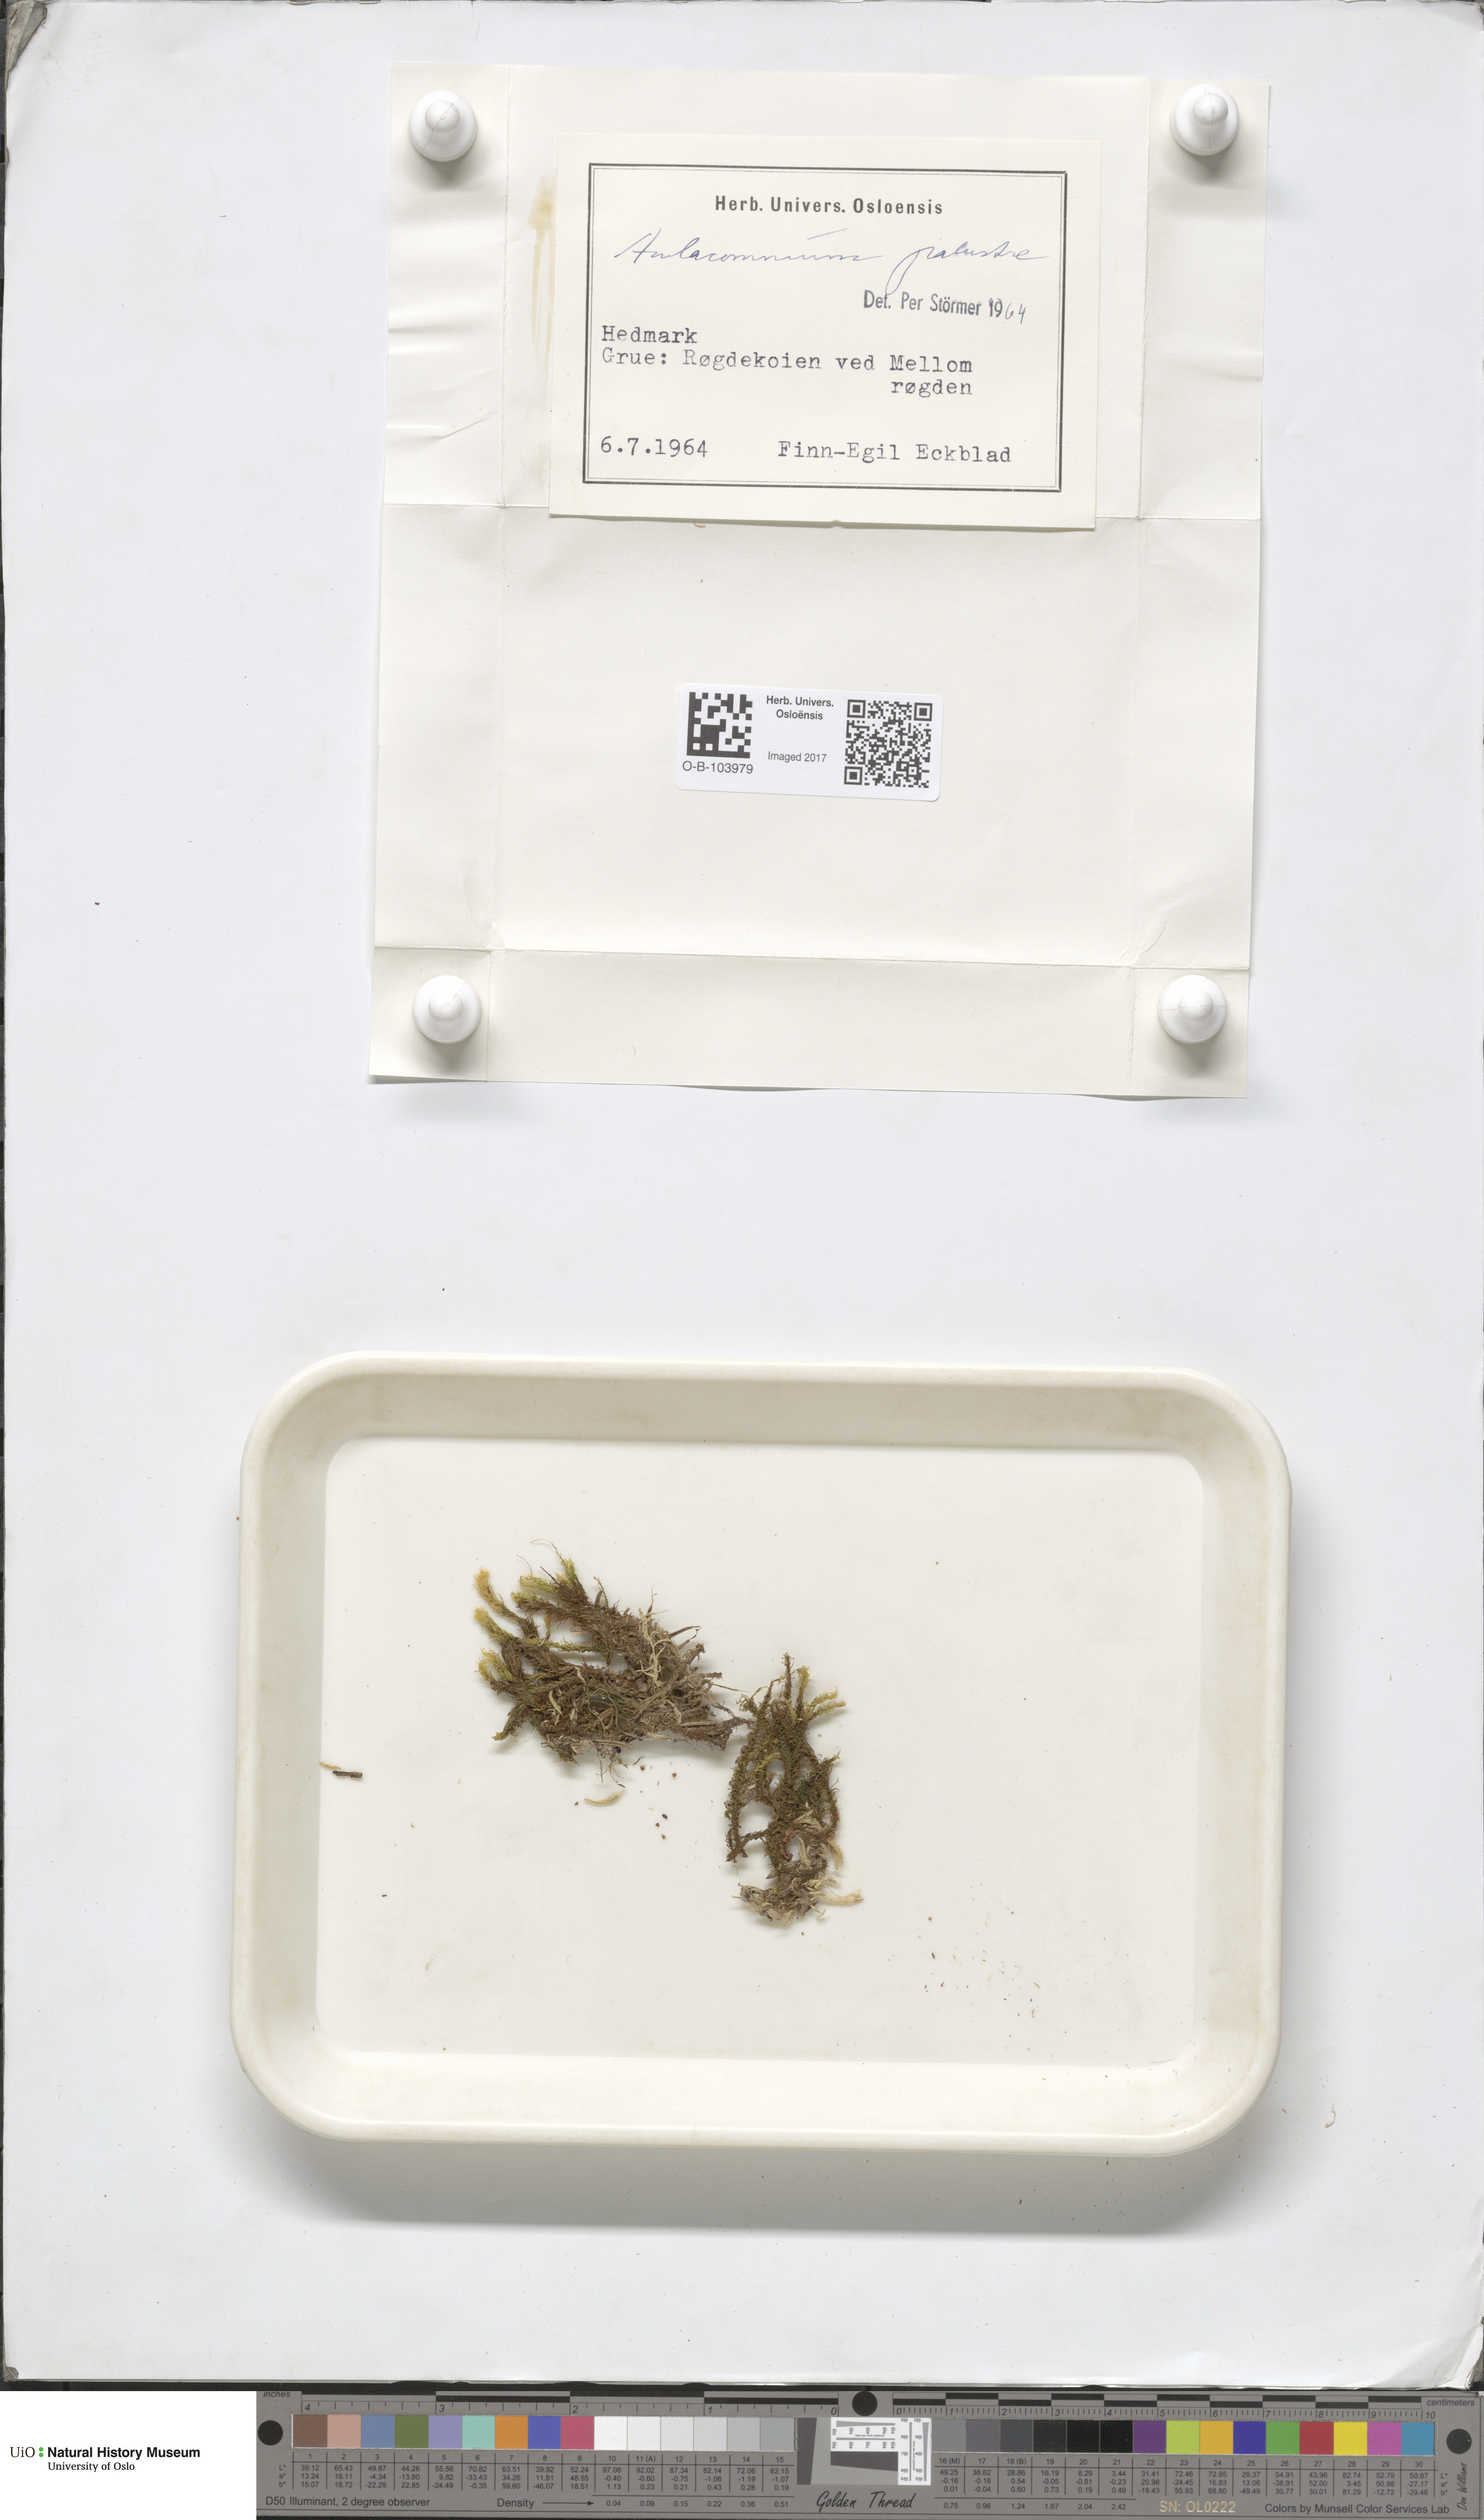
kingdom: Plantae
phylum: Bryophyta
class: Bryopsida
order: Aulacomniales
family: Aulacomniaceae
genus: Aulacomnium
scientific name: Aulacomnium palustre
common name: Bog groove-moss
